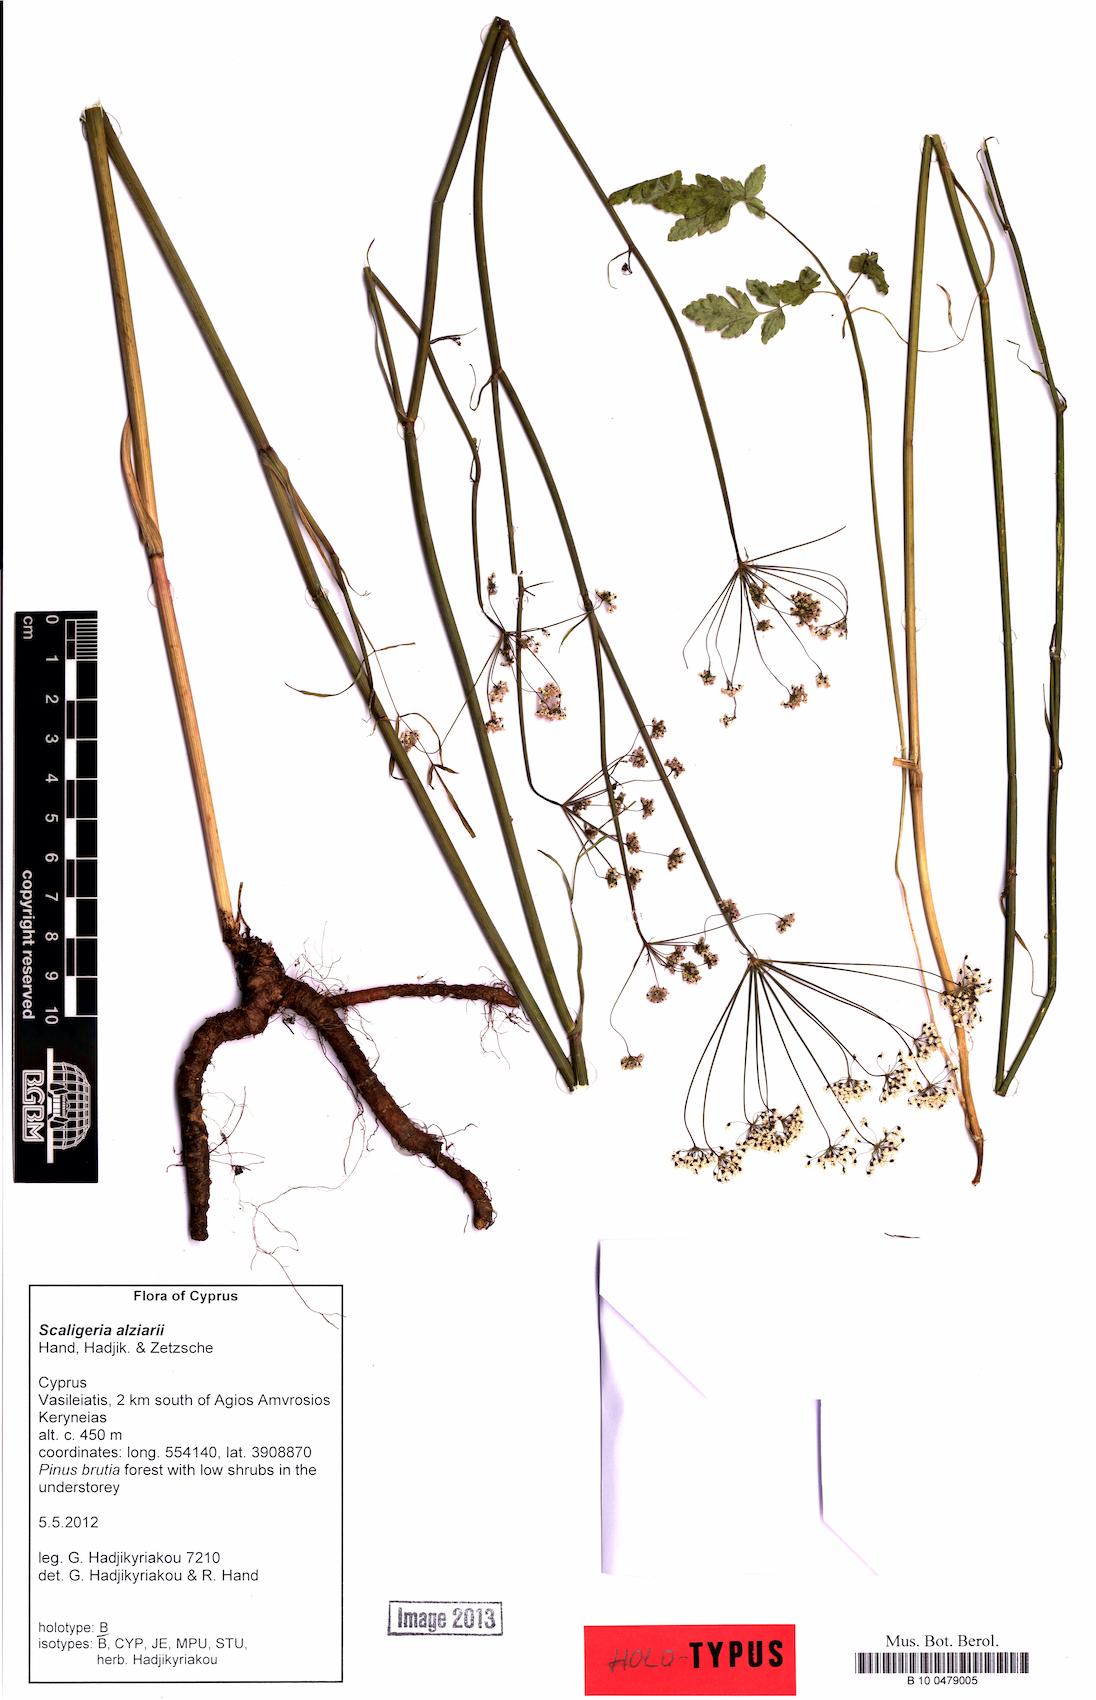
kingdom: Plantae
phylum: Tracheophyta
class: Magnoliopsida
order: Apiales
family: Apiaceae
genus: Scaligeria
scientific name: Scaligeria alziarii
